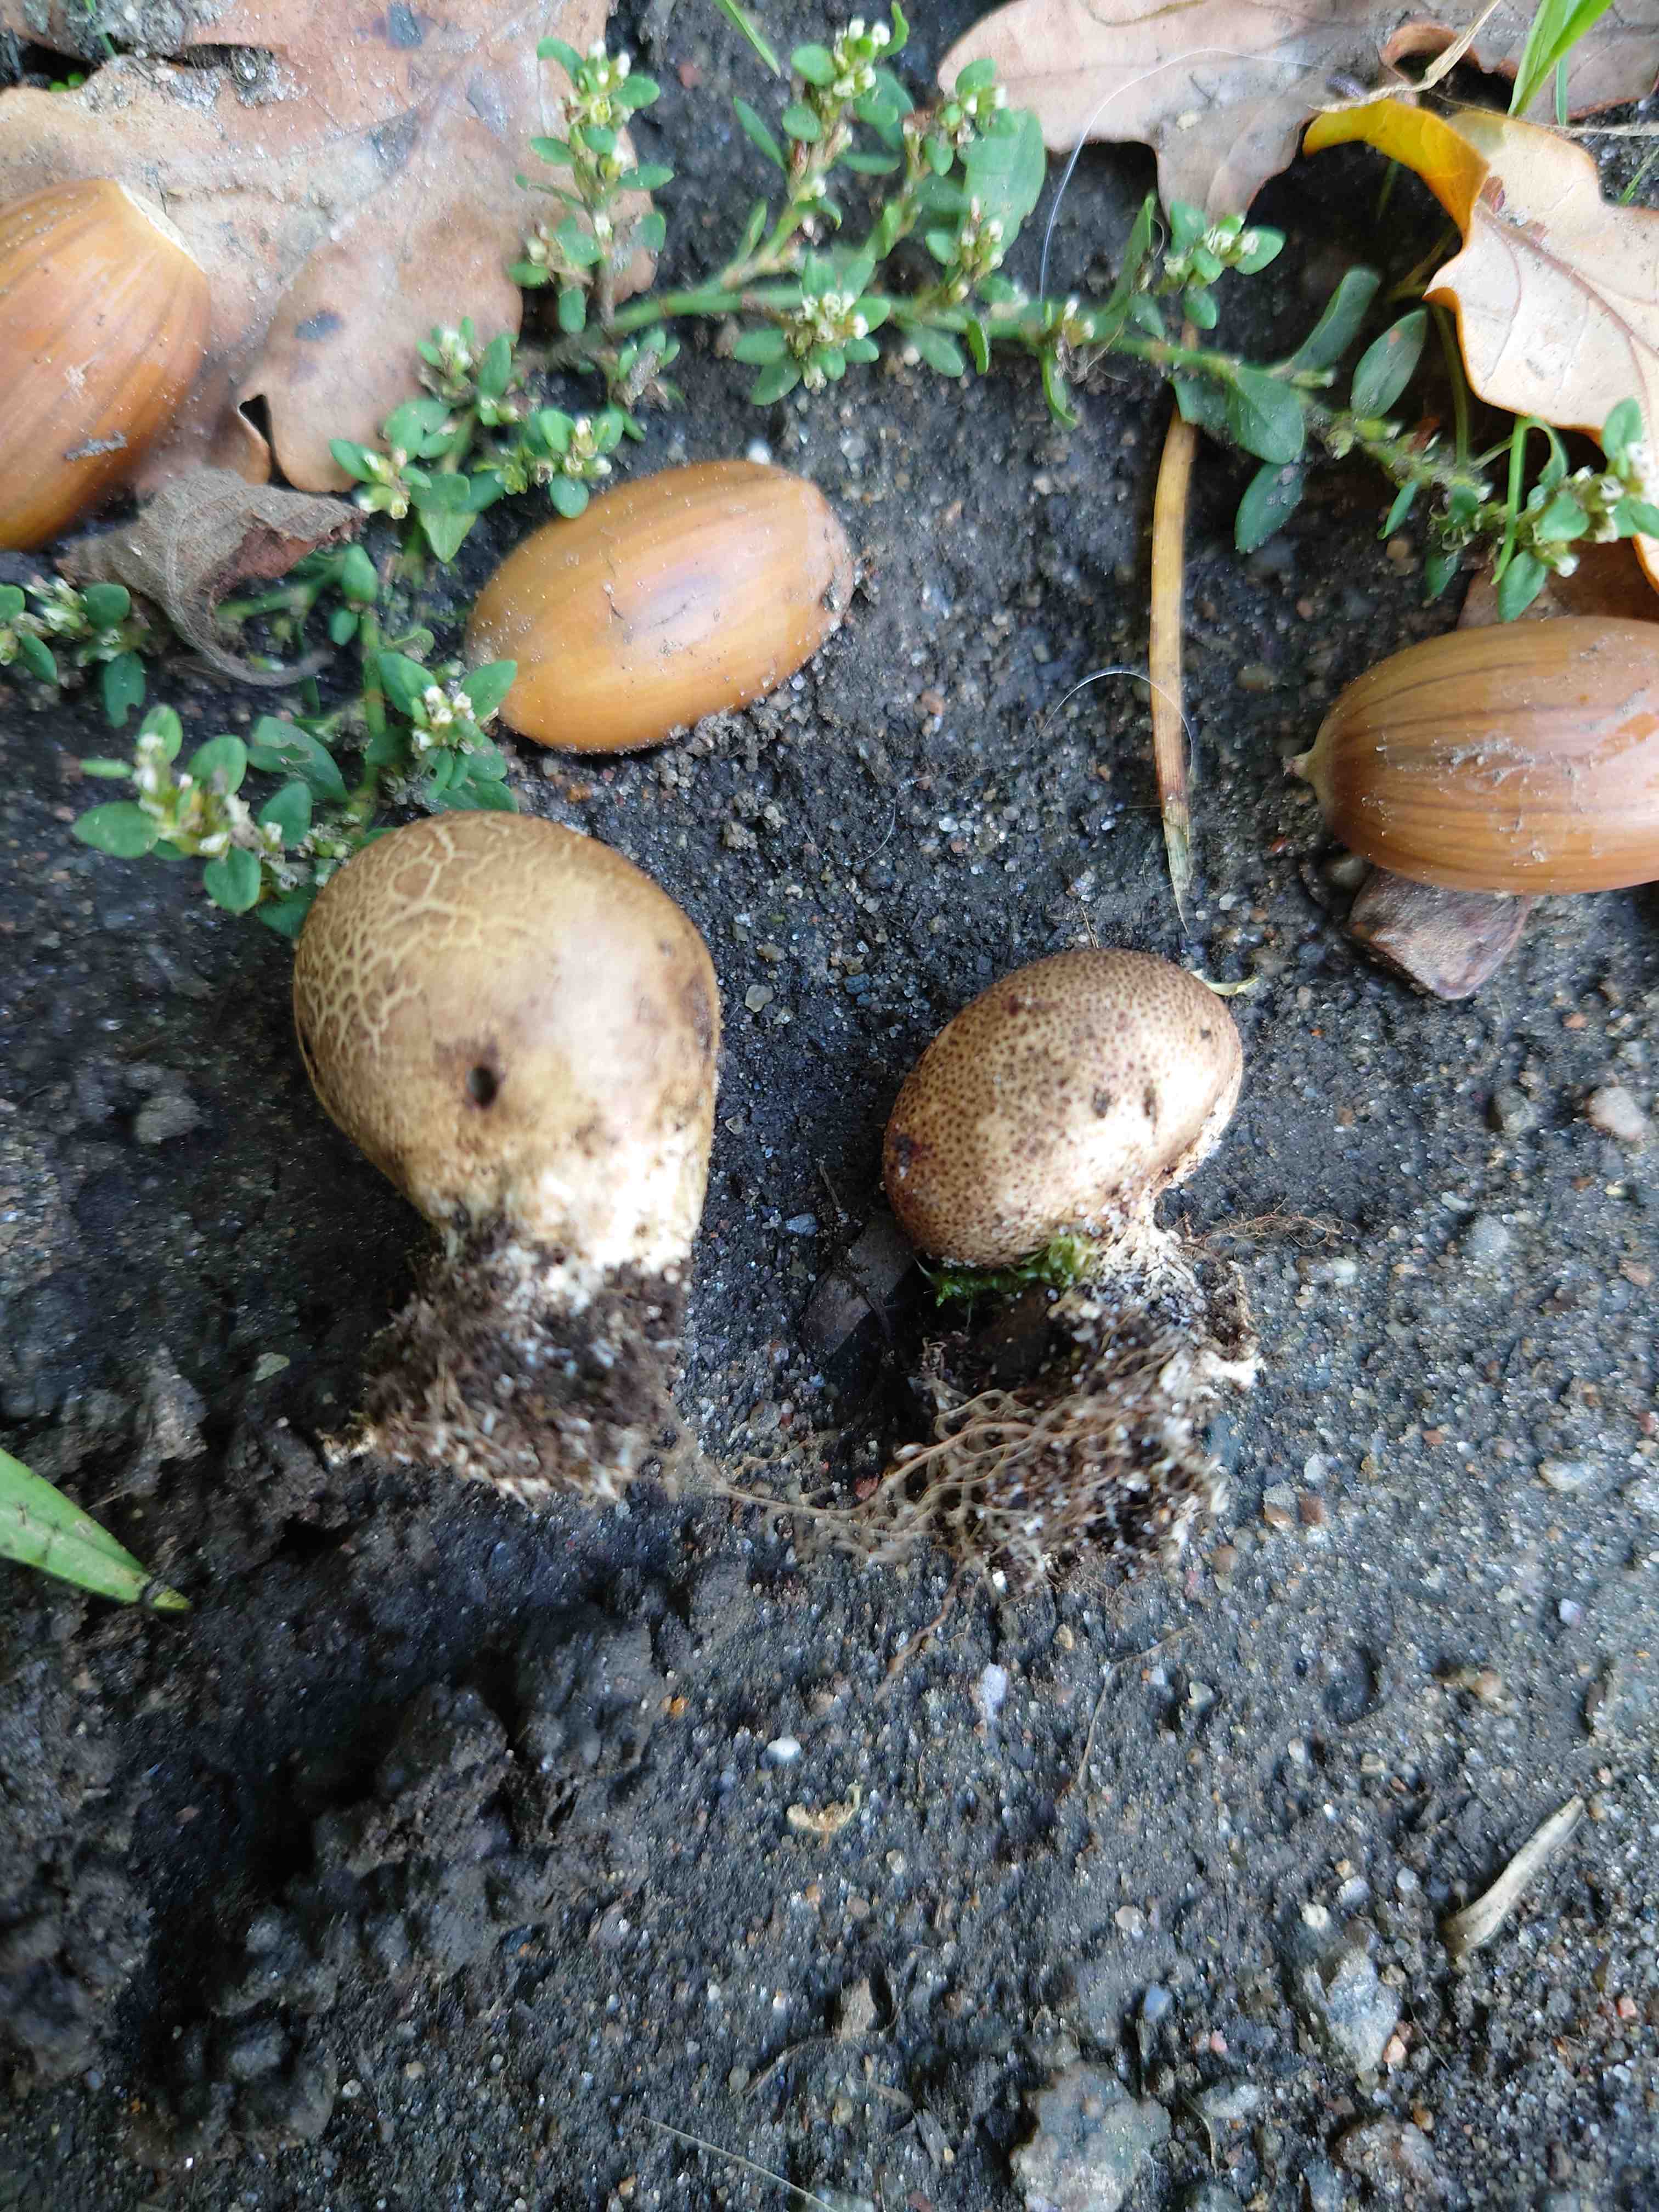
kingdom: Fungi
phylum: Basidiomycota
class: Agaricomycetes
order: Boletales
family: Sclerodermataceae
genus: Scleroderma
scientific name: Scleroderma areolatum
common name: plettet bruskbold
